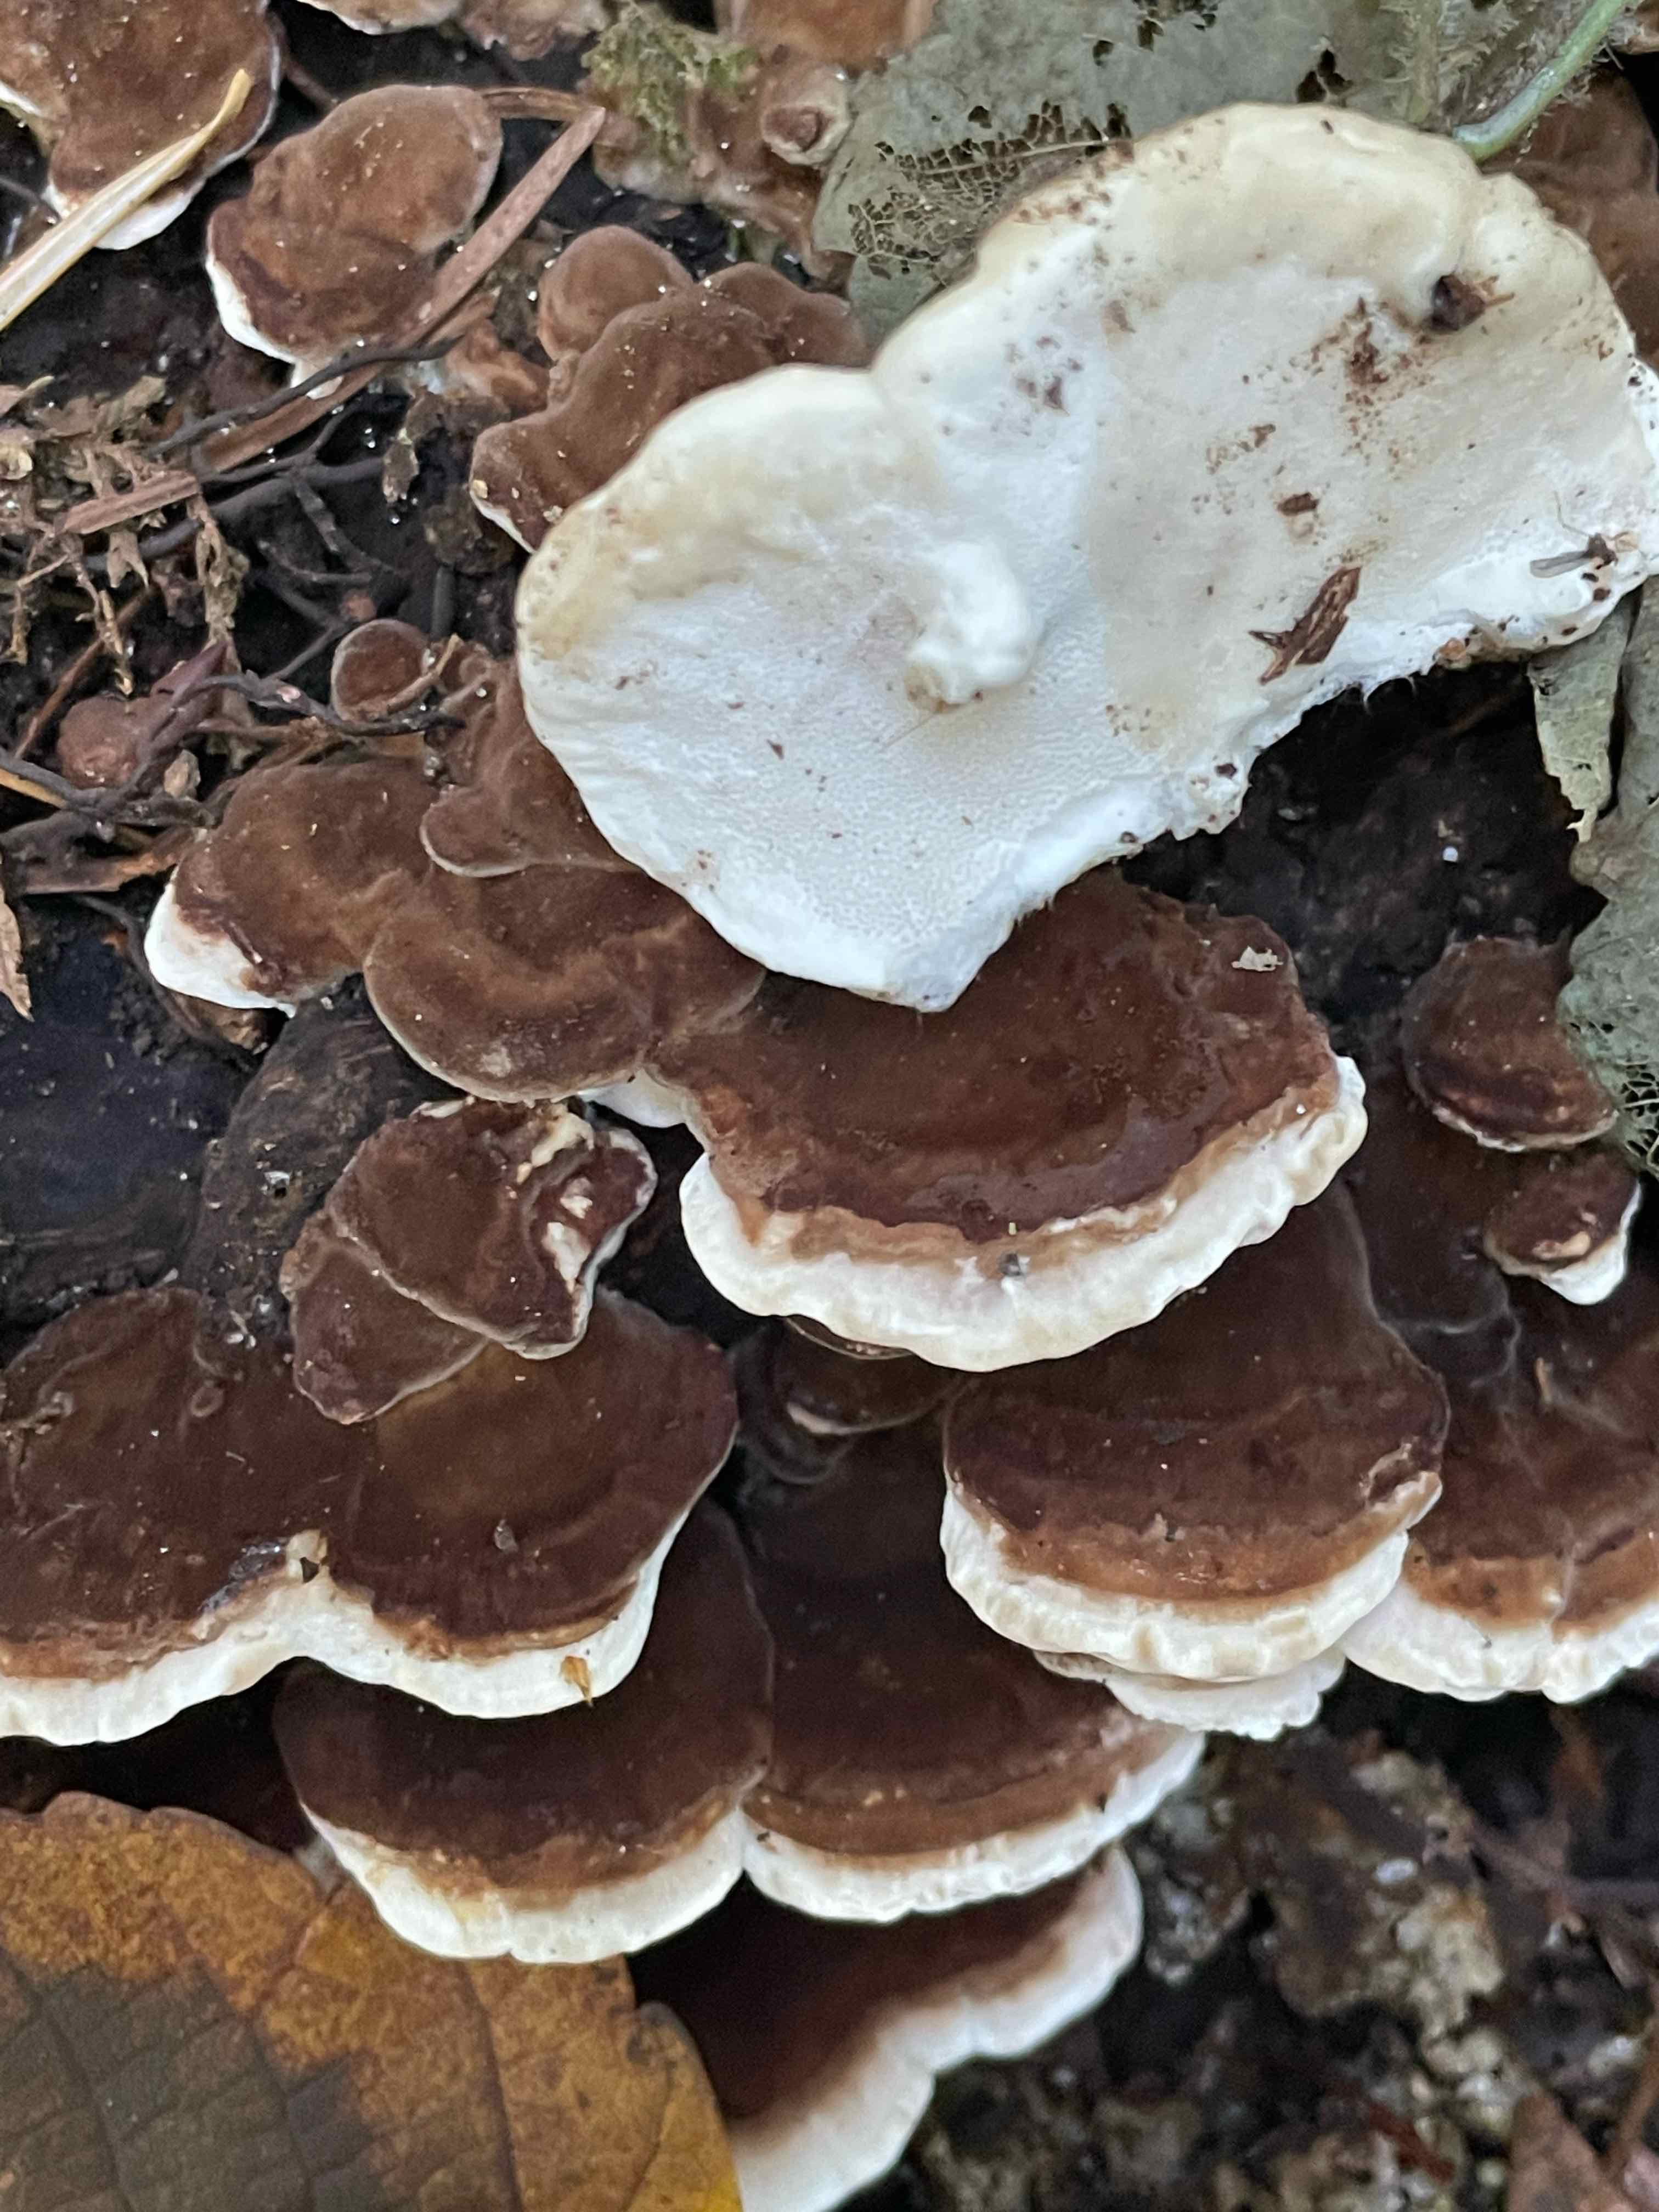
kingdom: Fungi
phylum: Basidiomycota
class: Agaricomycetes
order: Polyporales
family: Polyporaceae
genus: Trametes
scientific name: Trametes versicolor
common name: broget læderporesvamp
